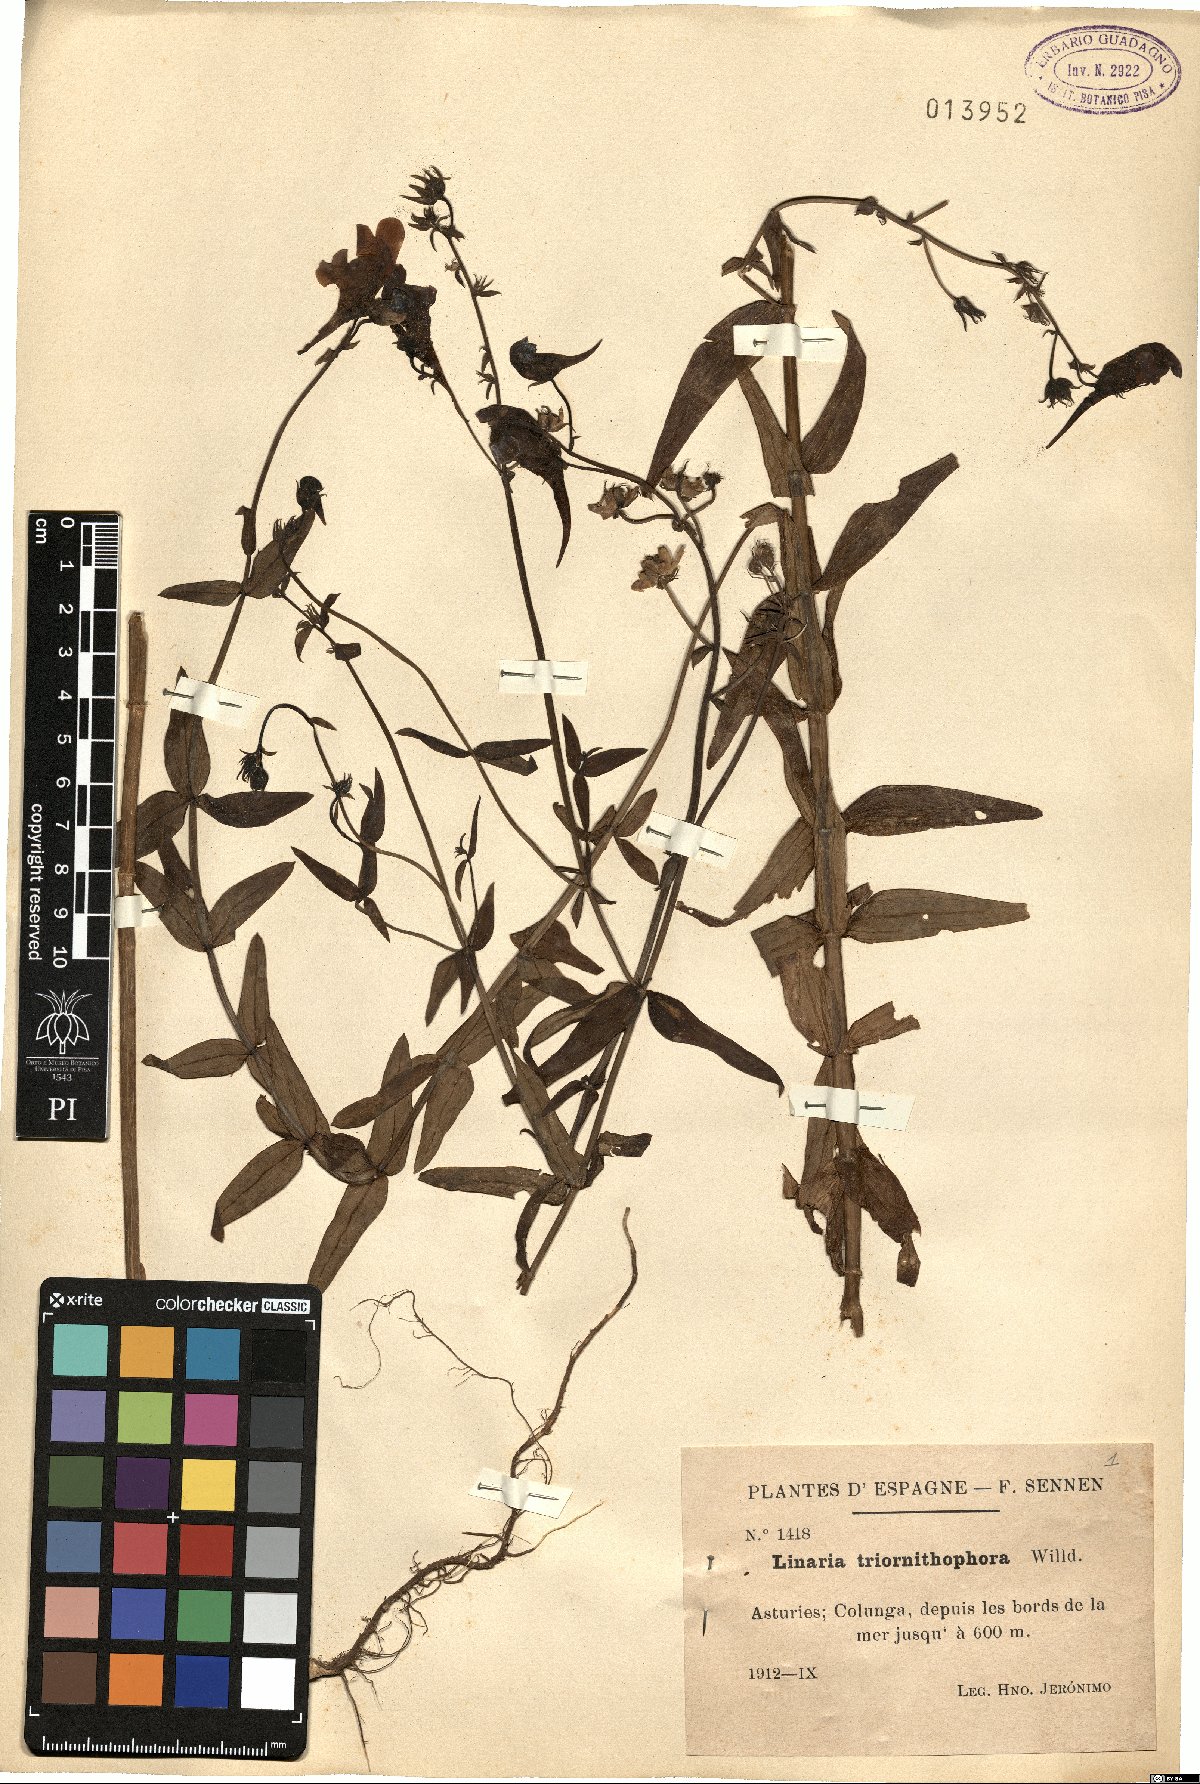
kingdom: Plantae
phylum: Tracheophyta
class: Magnoliopsida
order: Lamiales
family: Plantaginaceae
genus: Linaria
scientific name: Linaria triornithophora
